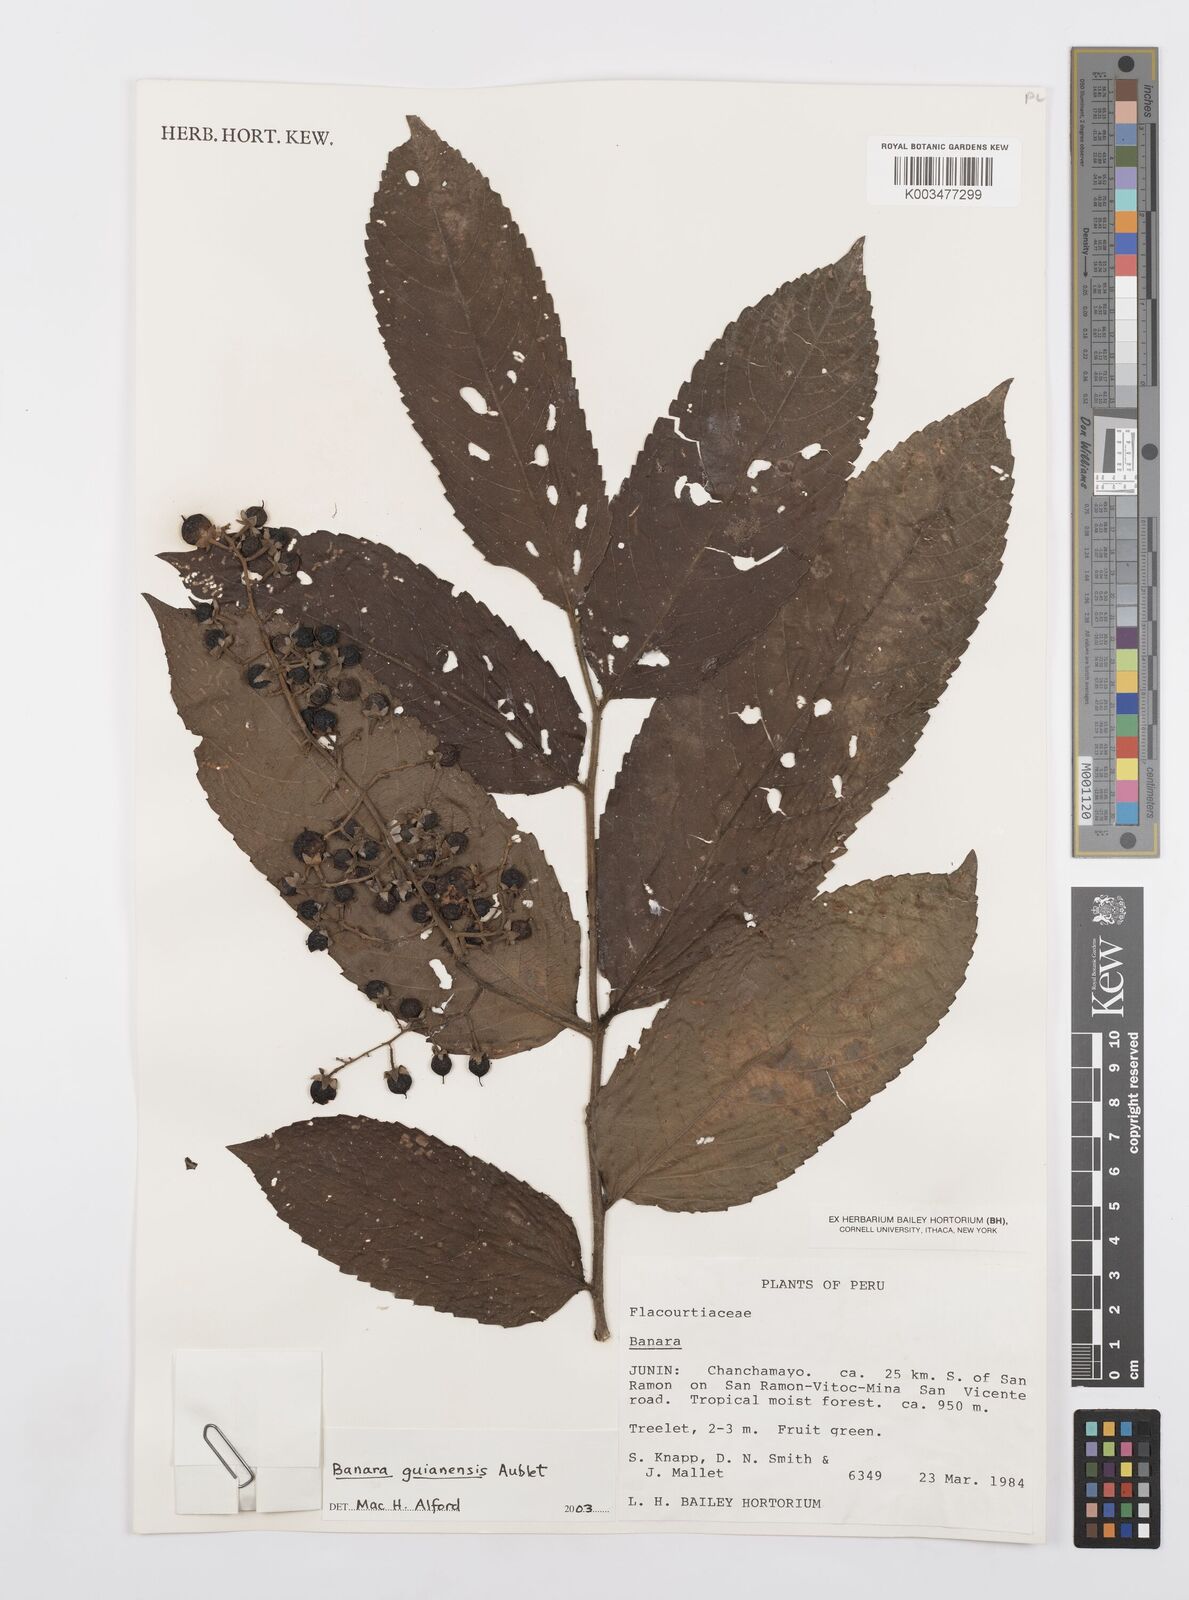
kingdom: Plantae
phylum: Tracheophyta
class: Magnoliopsida
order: Malpighiales
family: Salicaceae
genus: Banara
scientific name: Banara guianensis
